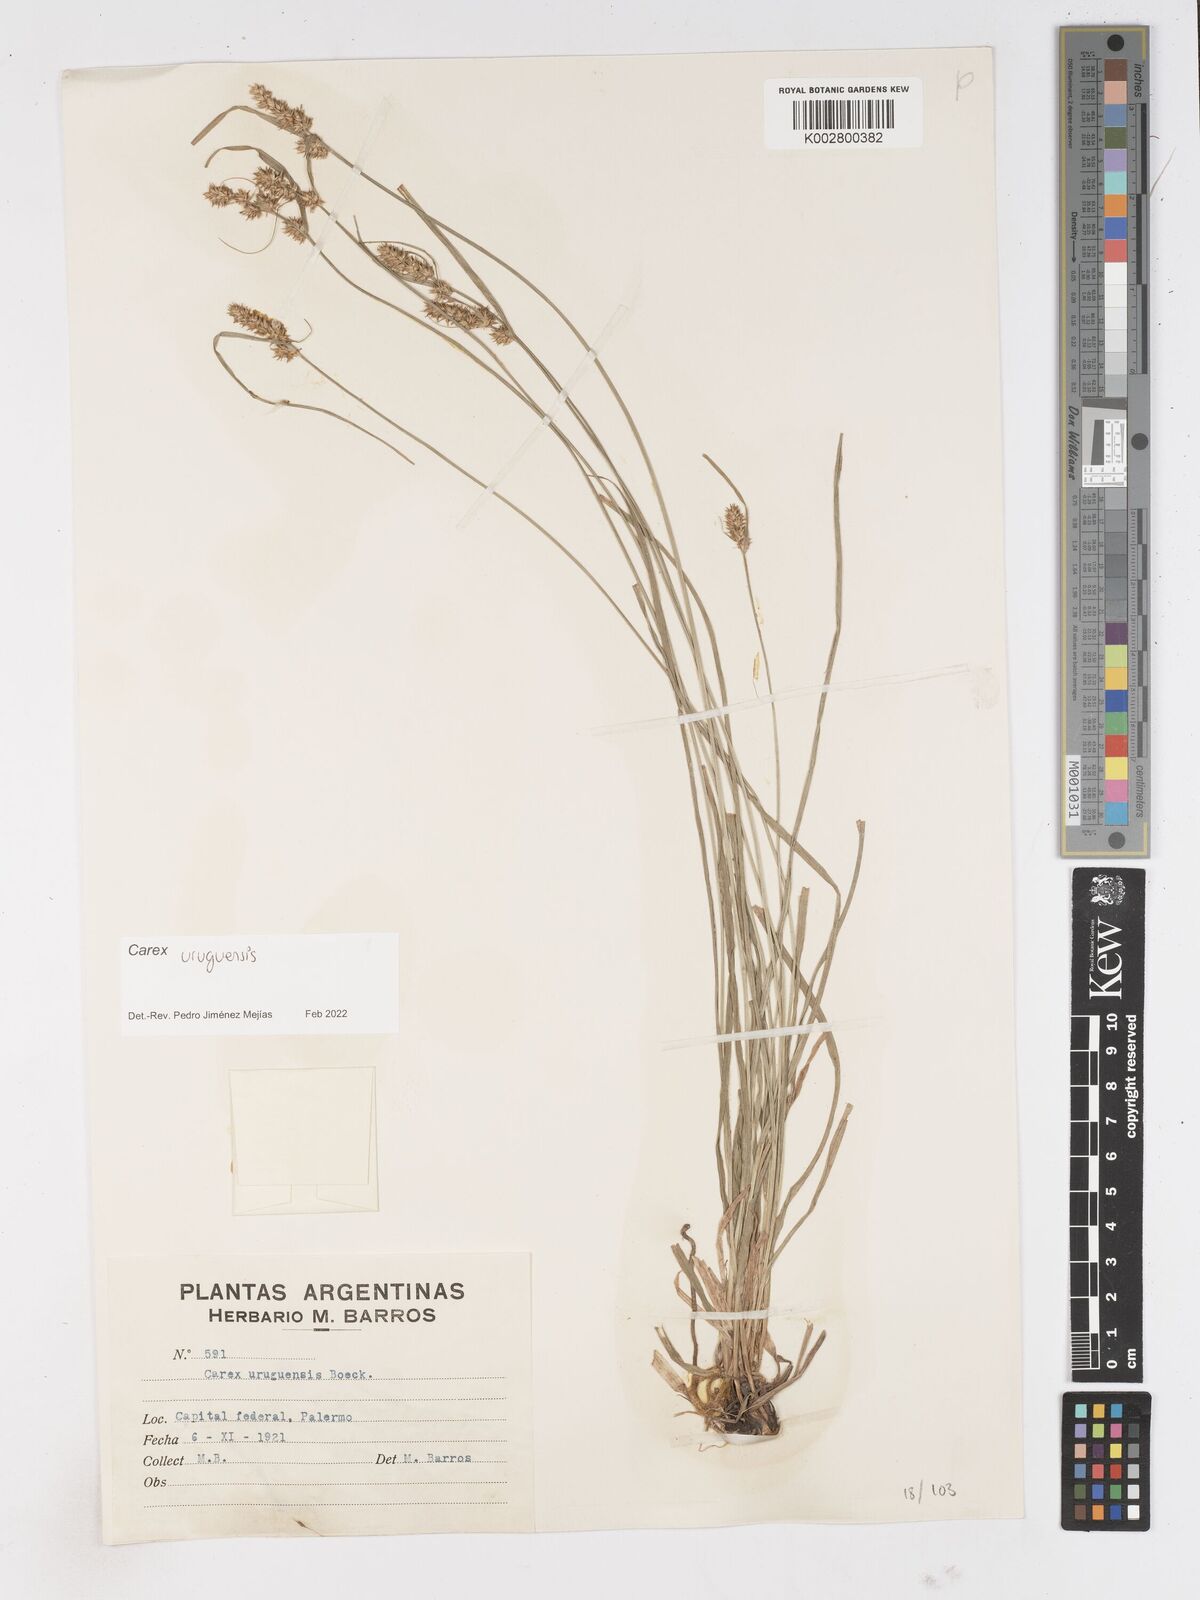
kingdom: Plantae
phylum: Tracheophyta
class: Liliopsida
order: Poales
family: Cyperaceae
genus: Carex
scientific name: Carex uruguensis
